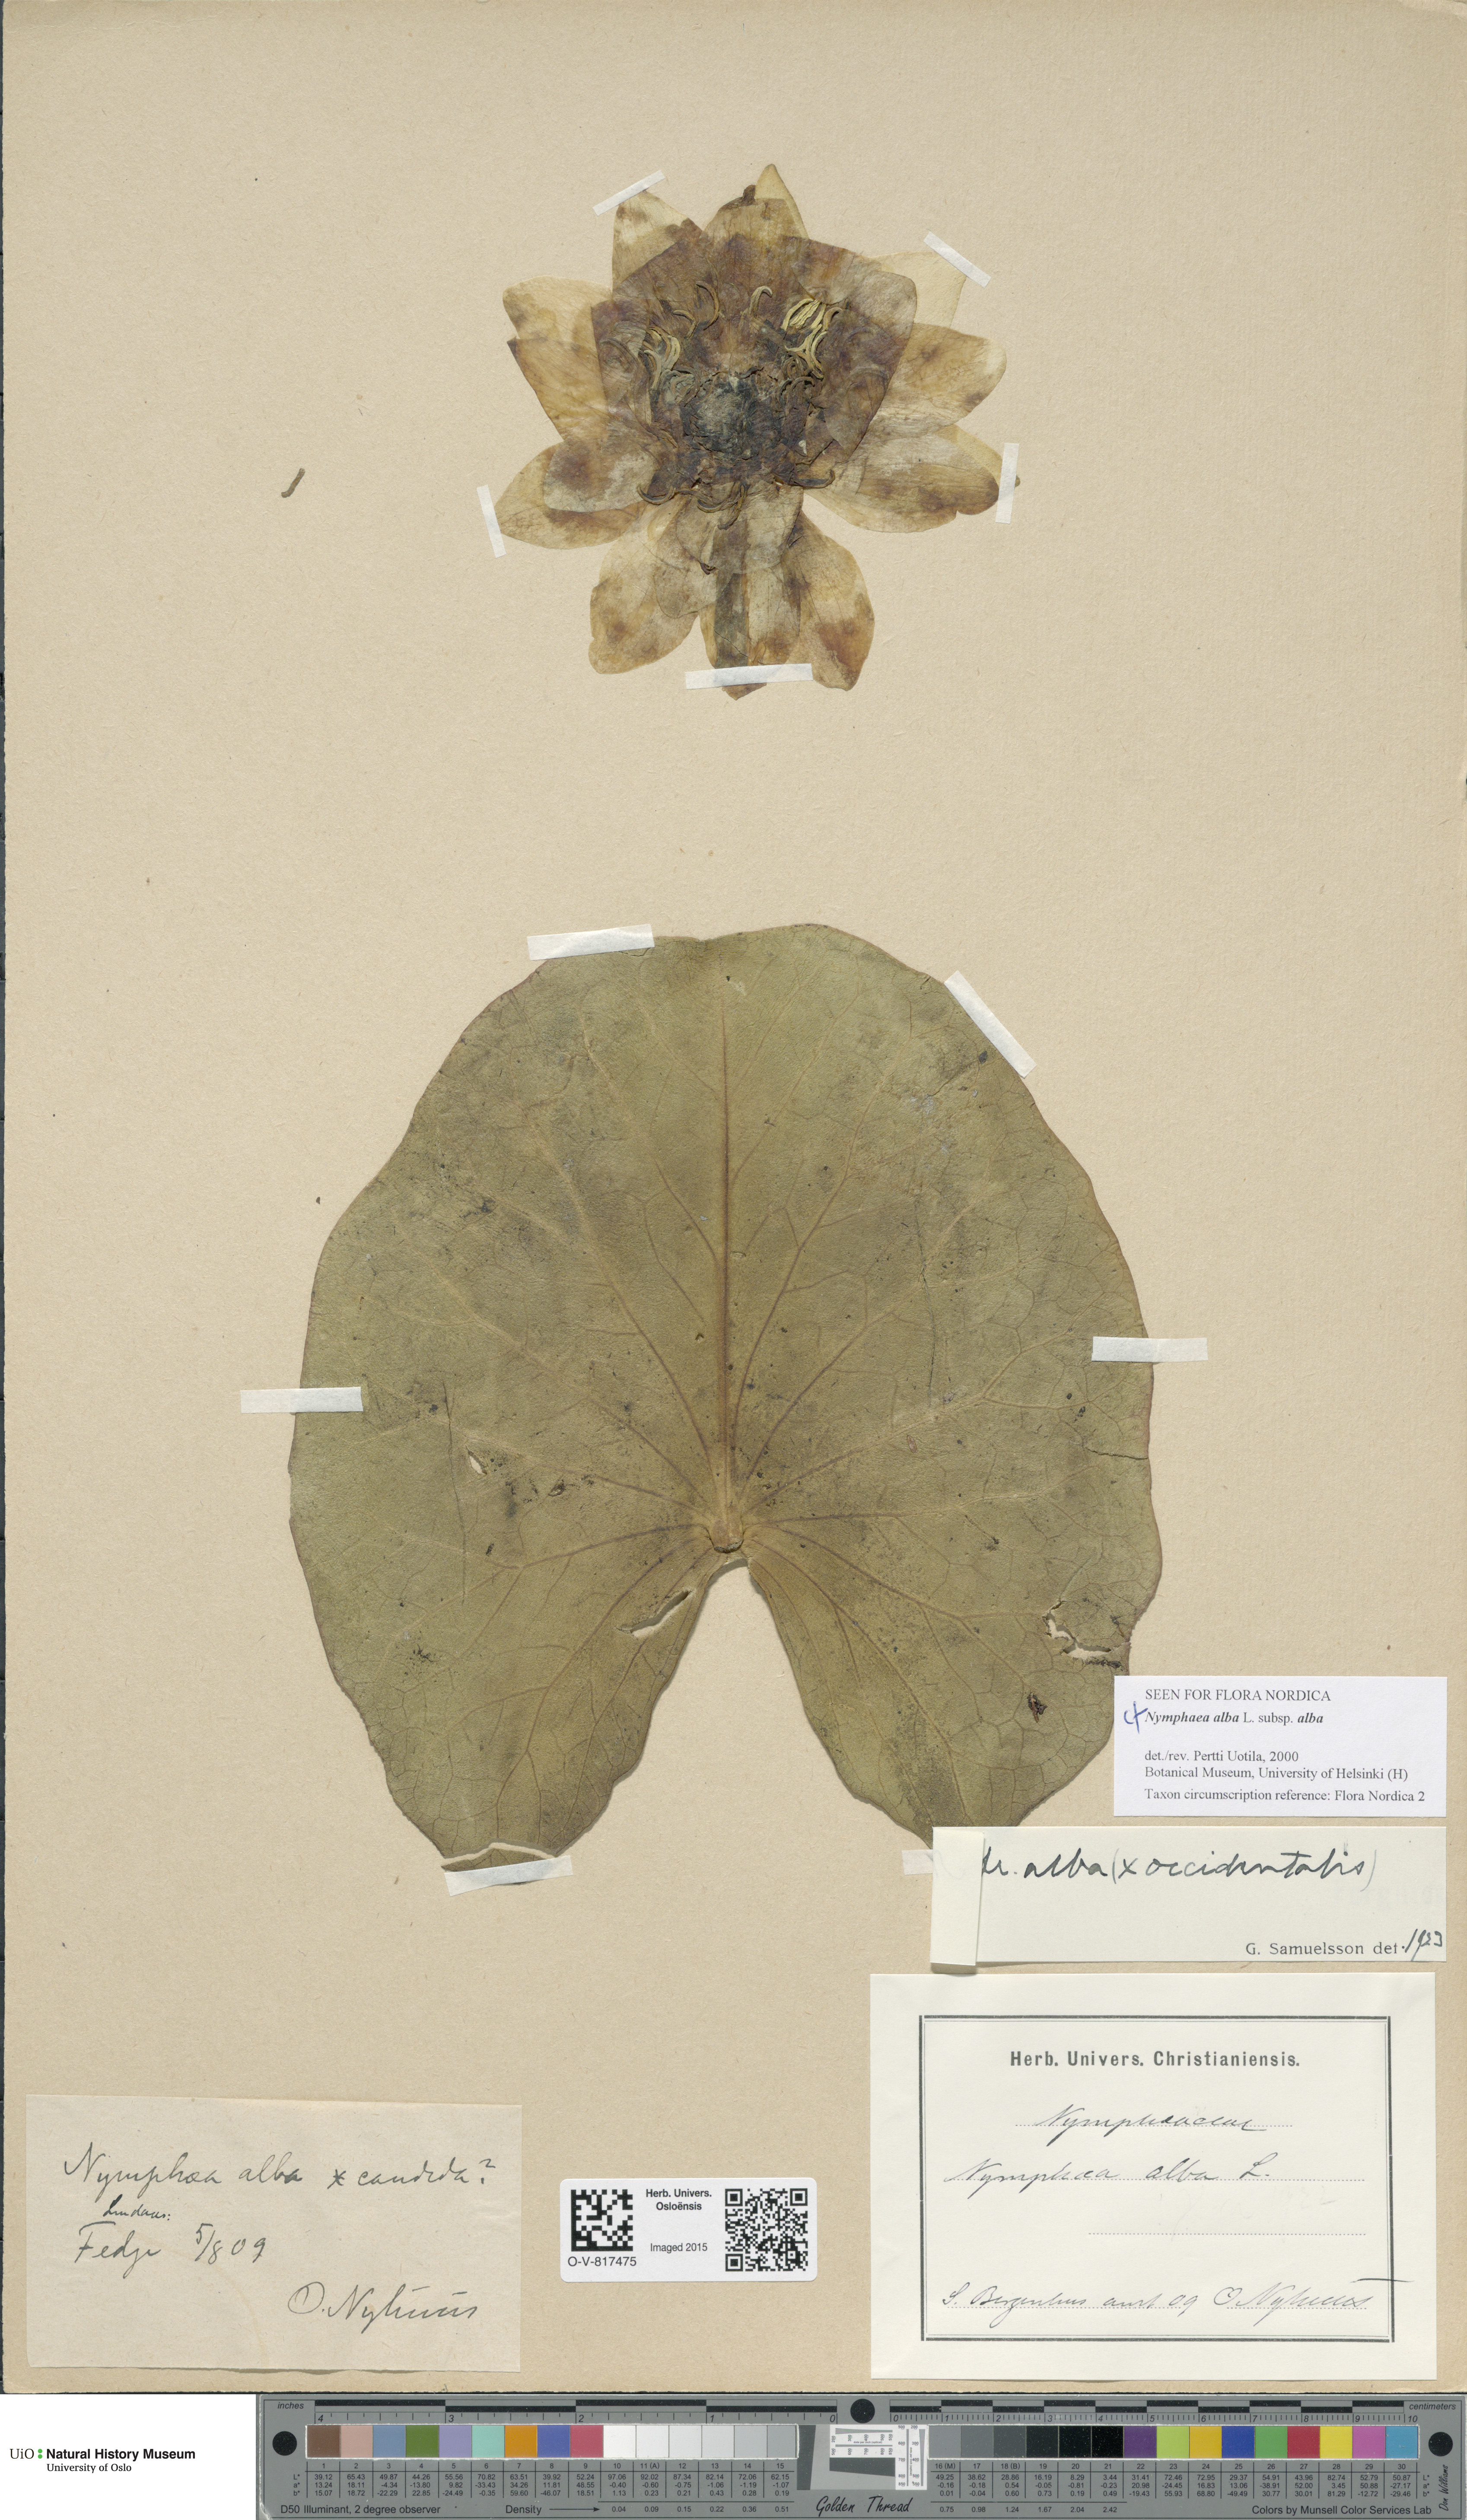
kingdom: Plantae
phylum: Tracheophyta
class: Magnoliopsida
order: Nymphaeales
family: Nymphaeaceae
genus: Nymphaea
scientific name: Nymphaea alba
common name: White water-lily
